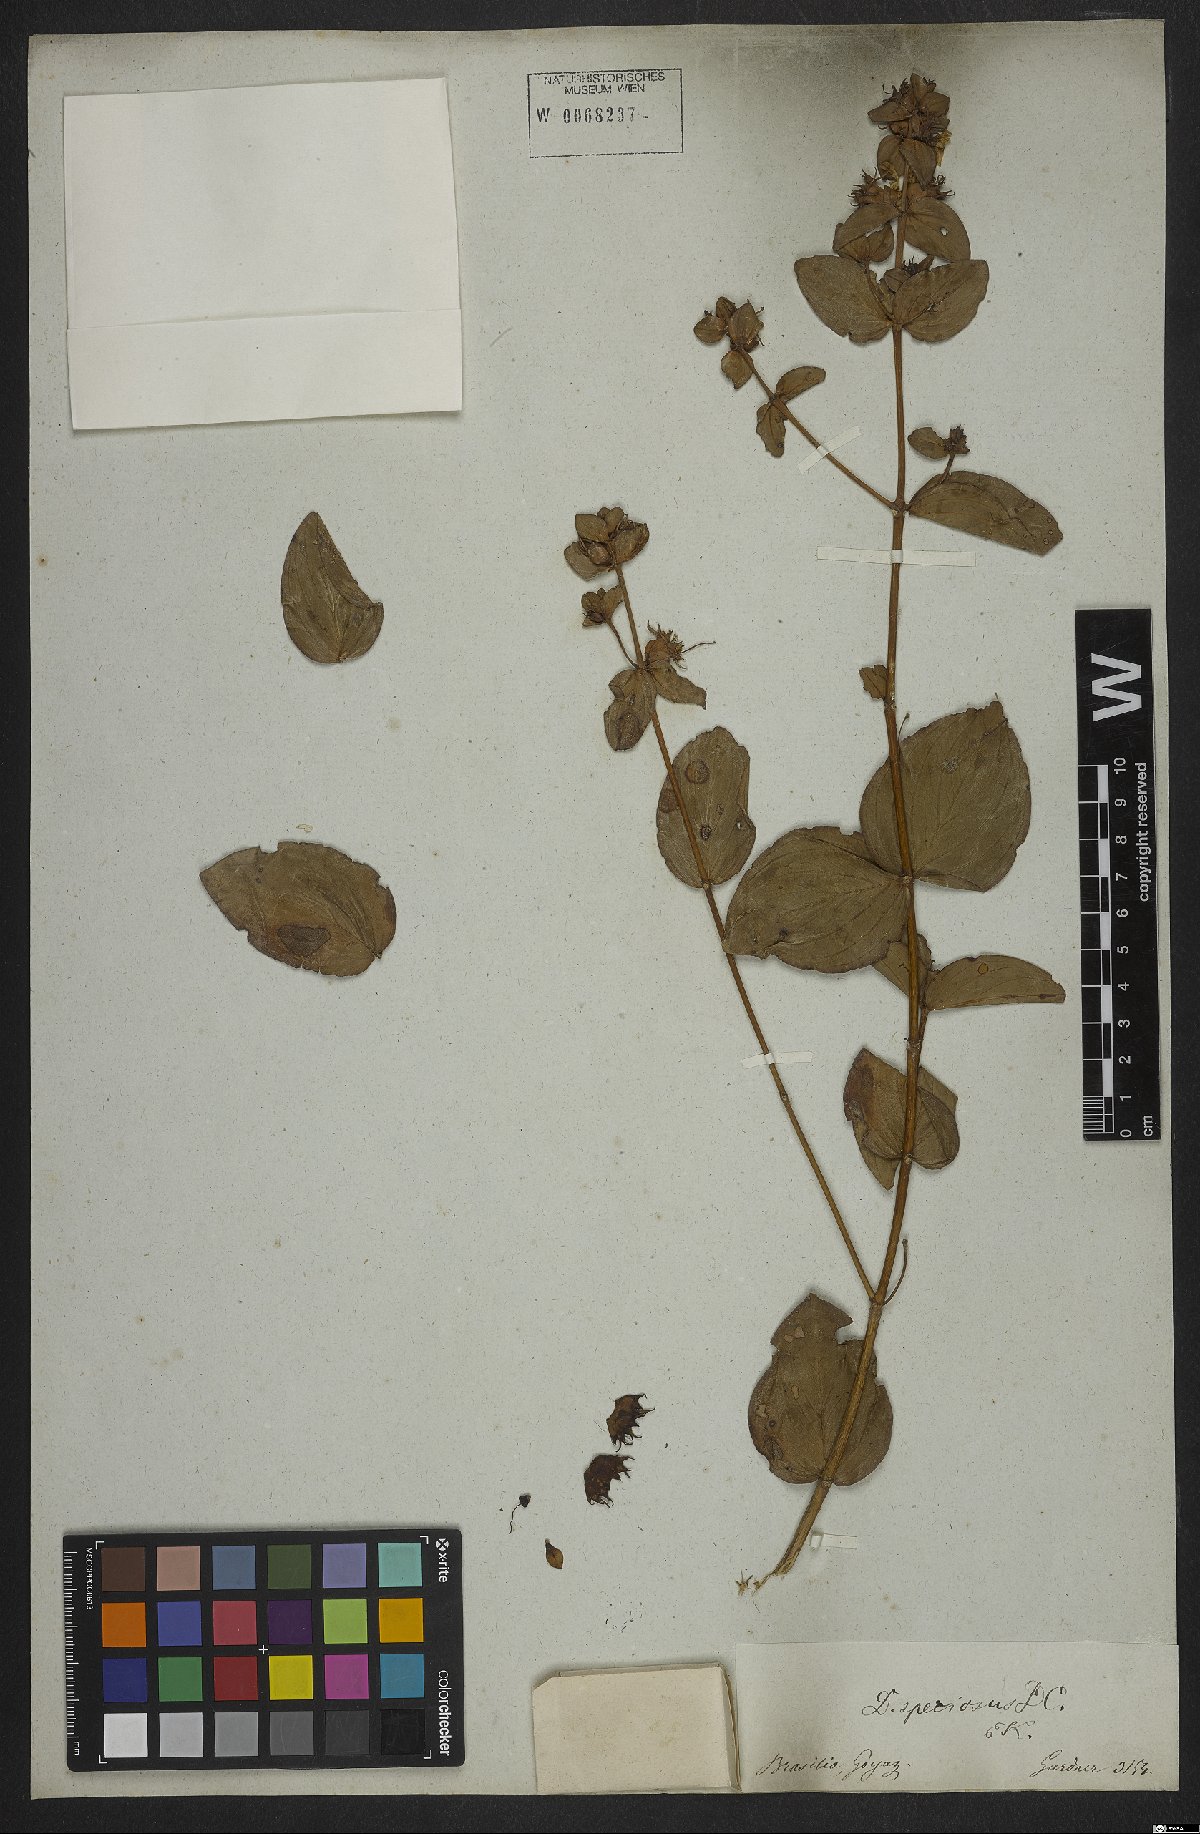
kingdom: Plantae
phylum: Tracheophyta
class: Magnoliopsida
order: Myrtales
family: Lythraceae
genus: Cuphea
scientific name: Cuphea llavea
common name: Tiny-mice
